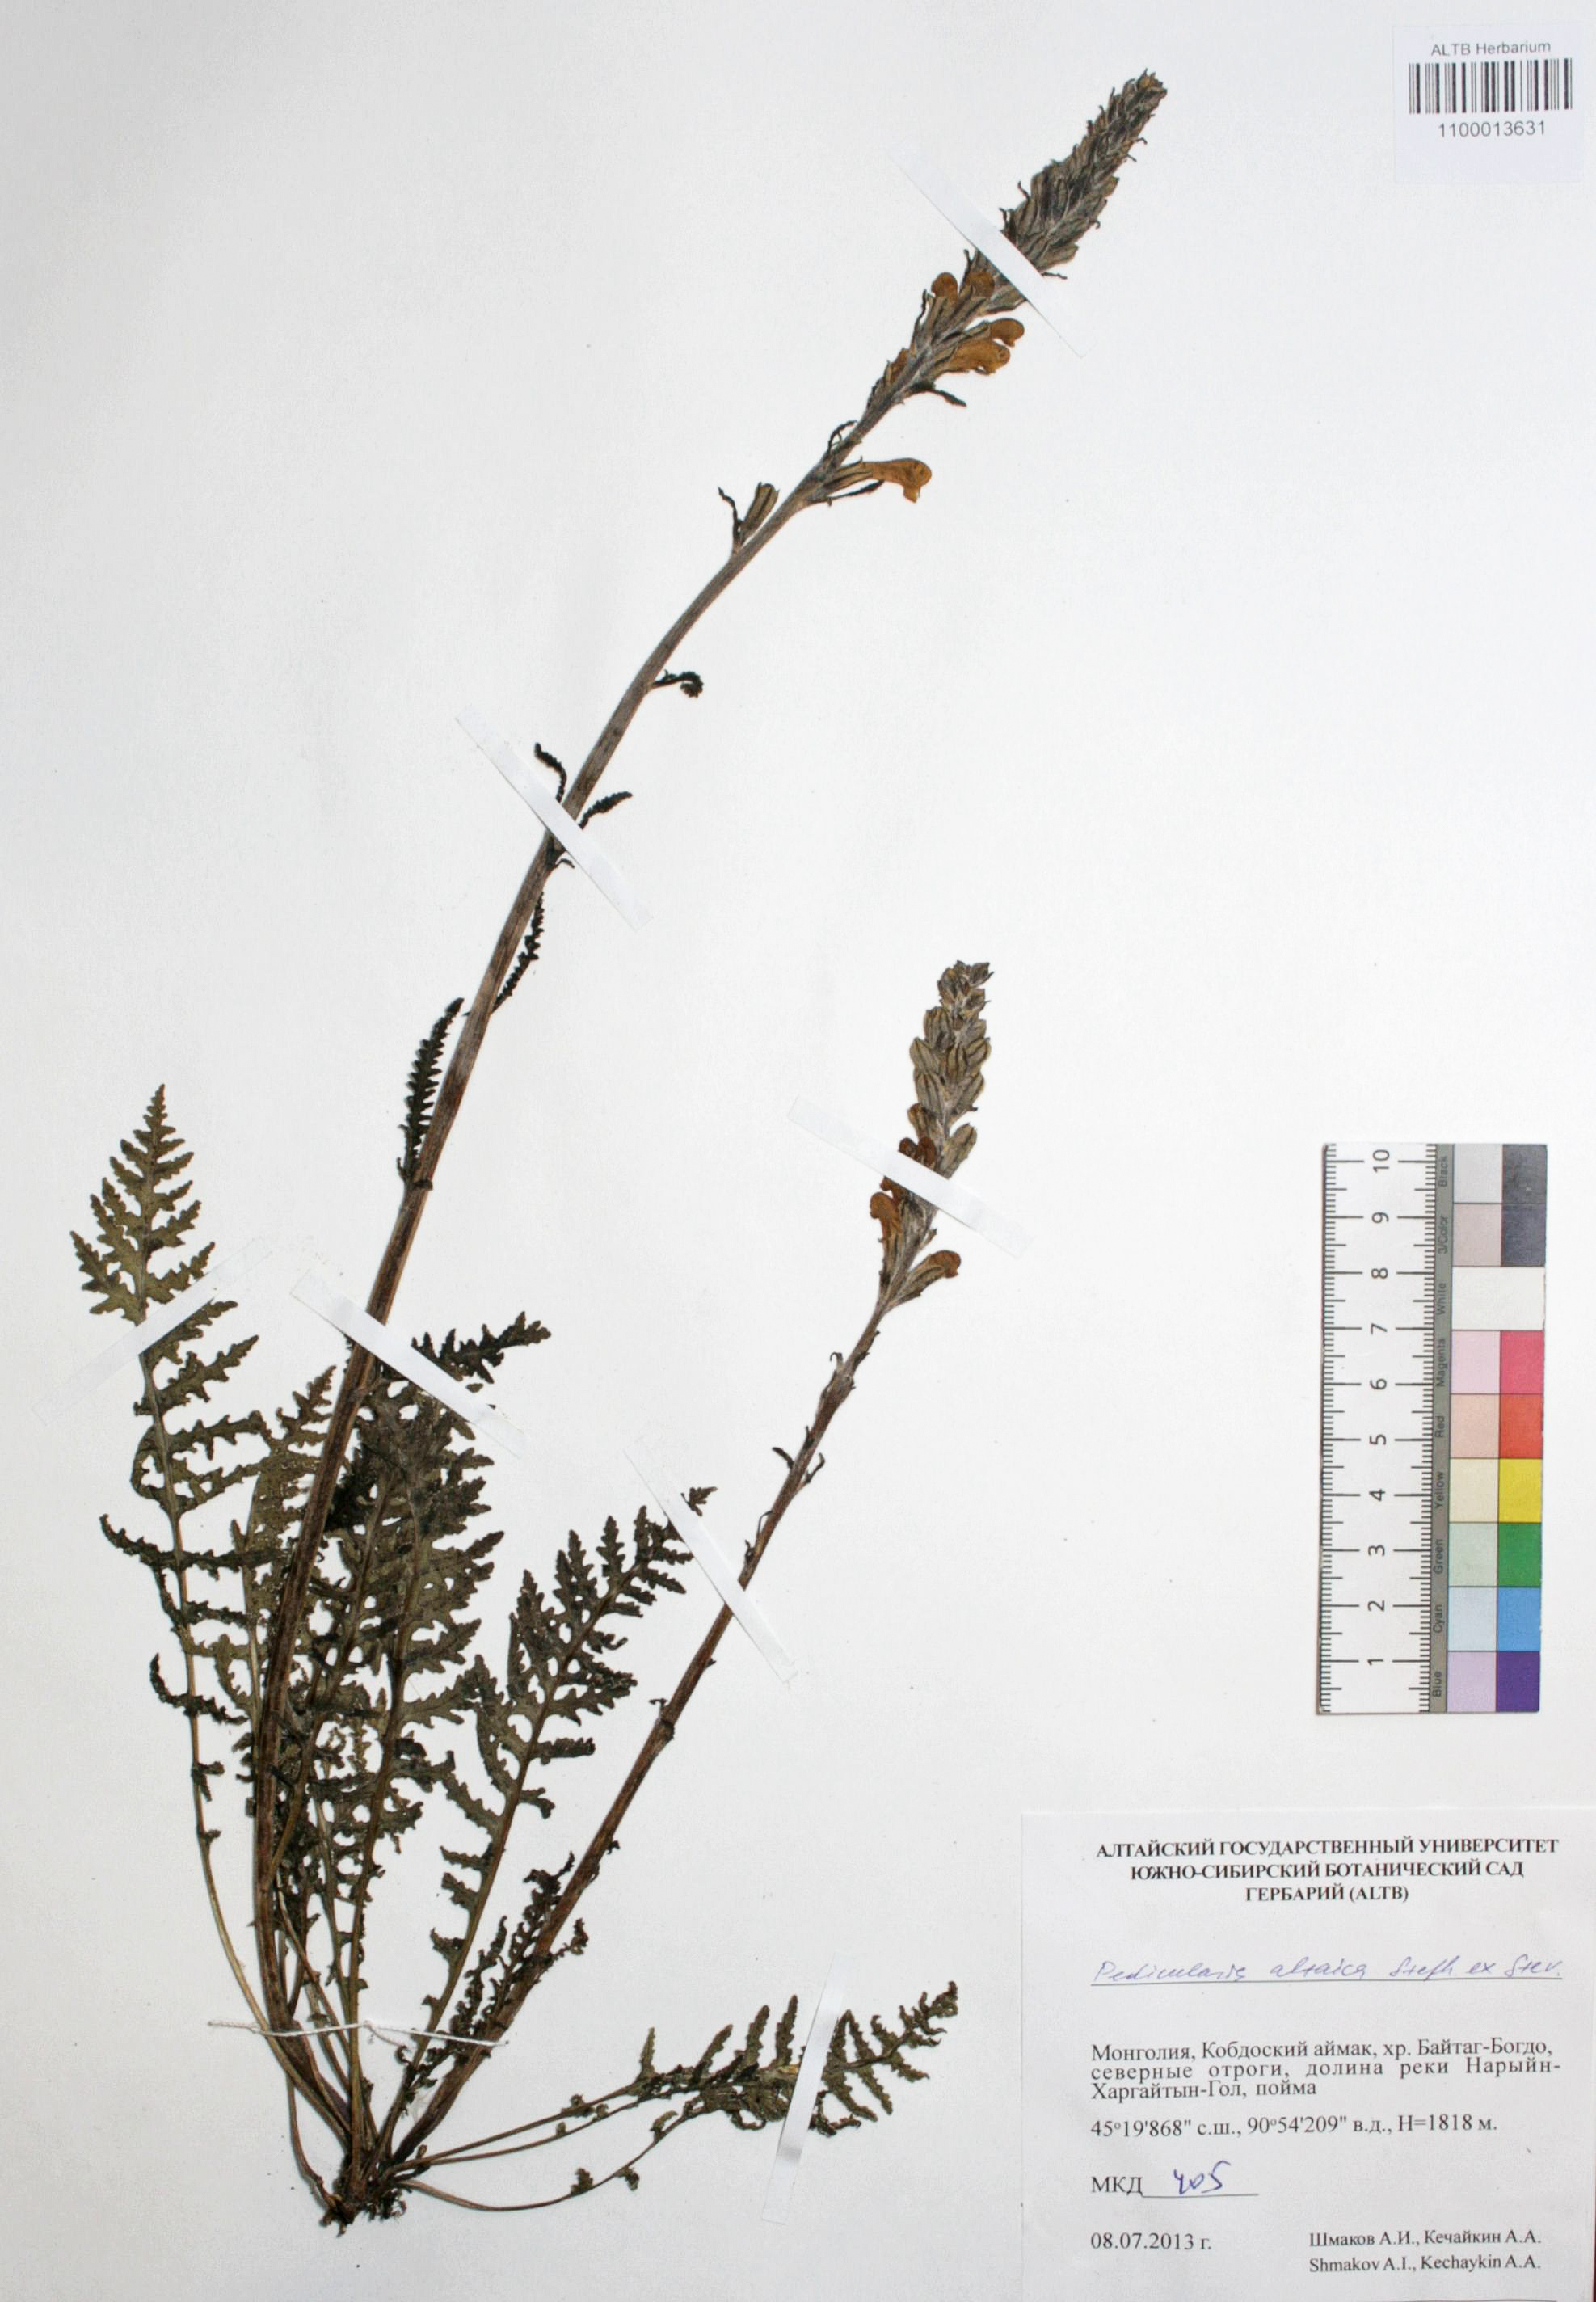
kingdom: Plantae
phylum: Tracheophyta
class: Magnoliopsida
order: Lamiales
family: Orobanchaceae
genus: Pedicularis
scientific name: Pedicularis altaica
